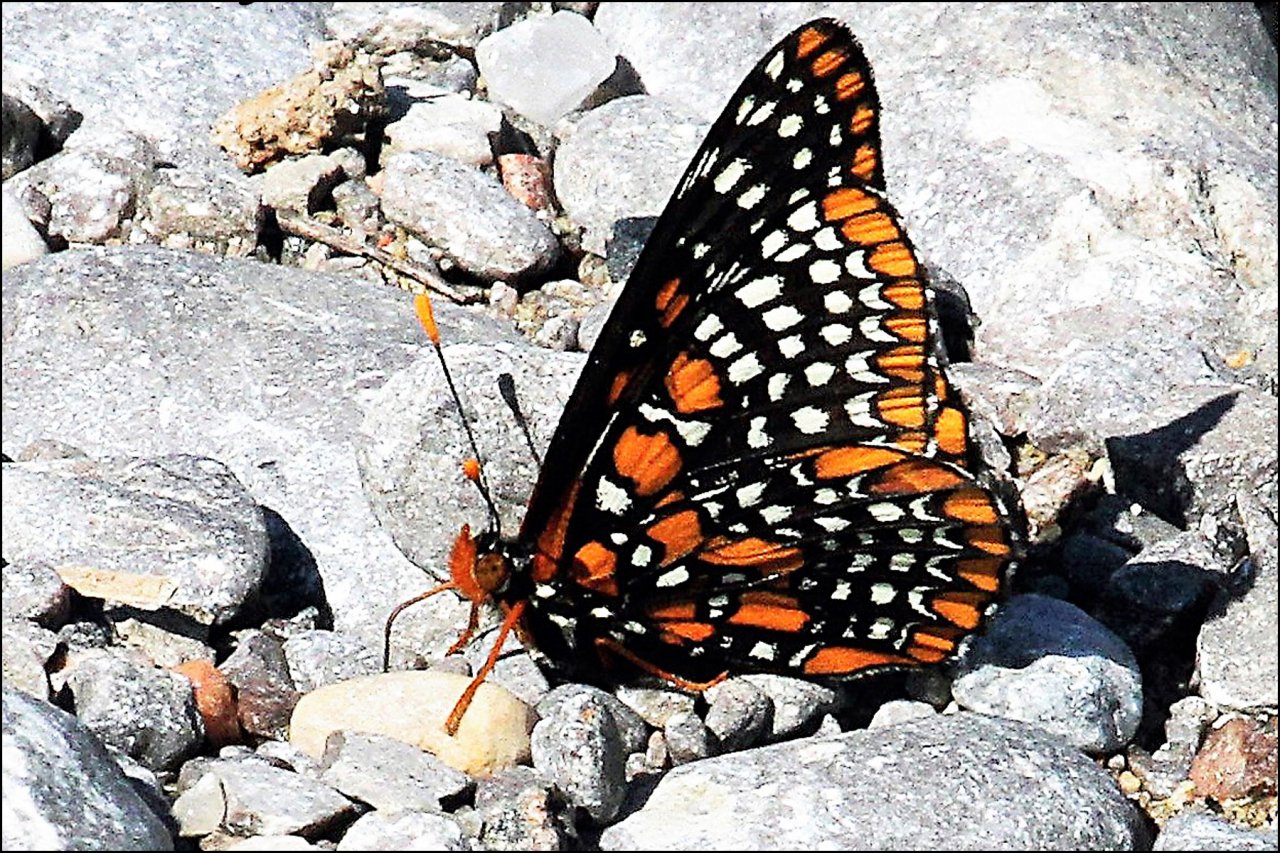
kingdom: Animalia
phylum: Arthropoda
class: Insecta
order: Lepidoptera
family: Nymphalidae
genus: Euphydryas
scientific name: Euphydryas phaeton
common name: Baltimore Checkerspot
